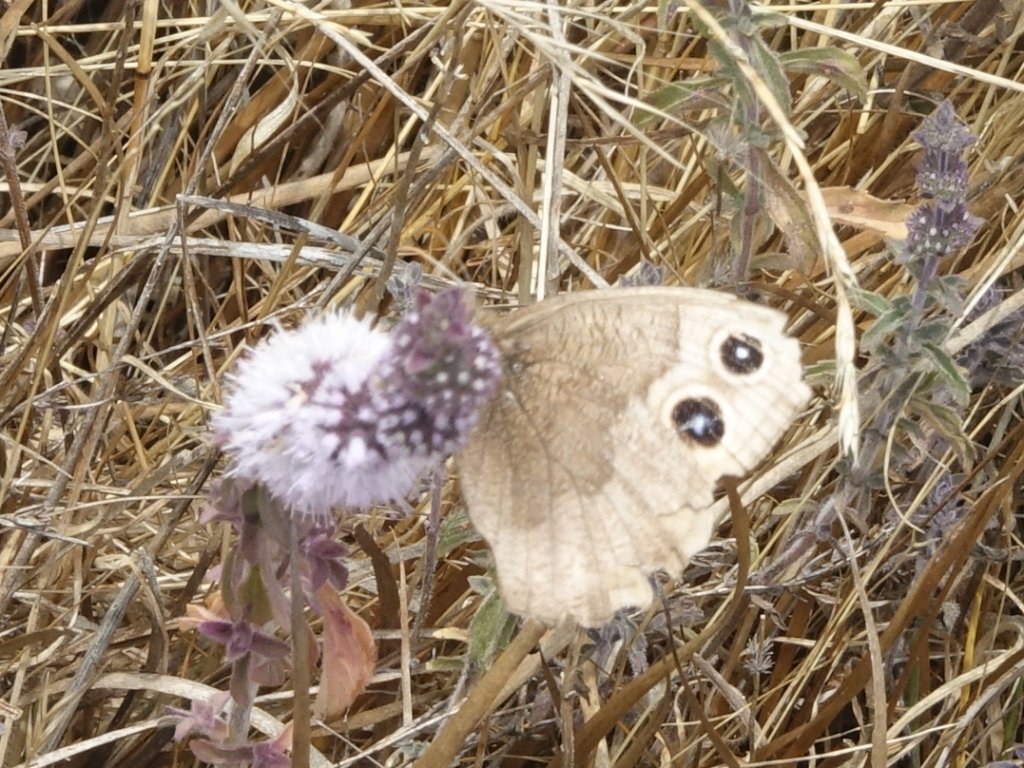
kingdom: Animalia
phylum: Arthropoda
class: Insecta
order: Lepidoptera
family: Nymphalidae
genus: Cercyonis
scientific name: Cercyonis pegala
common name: Common Wood-Nymph
